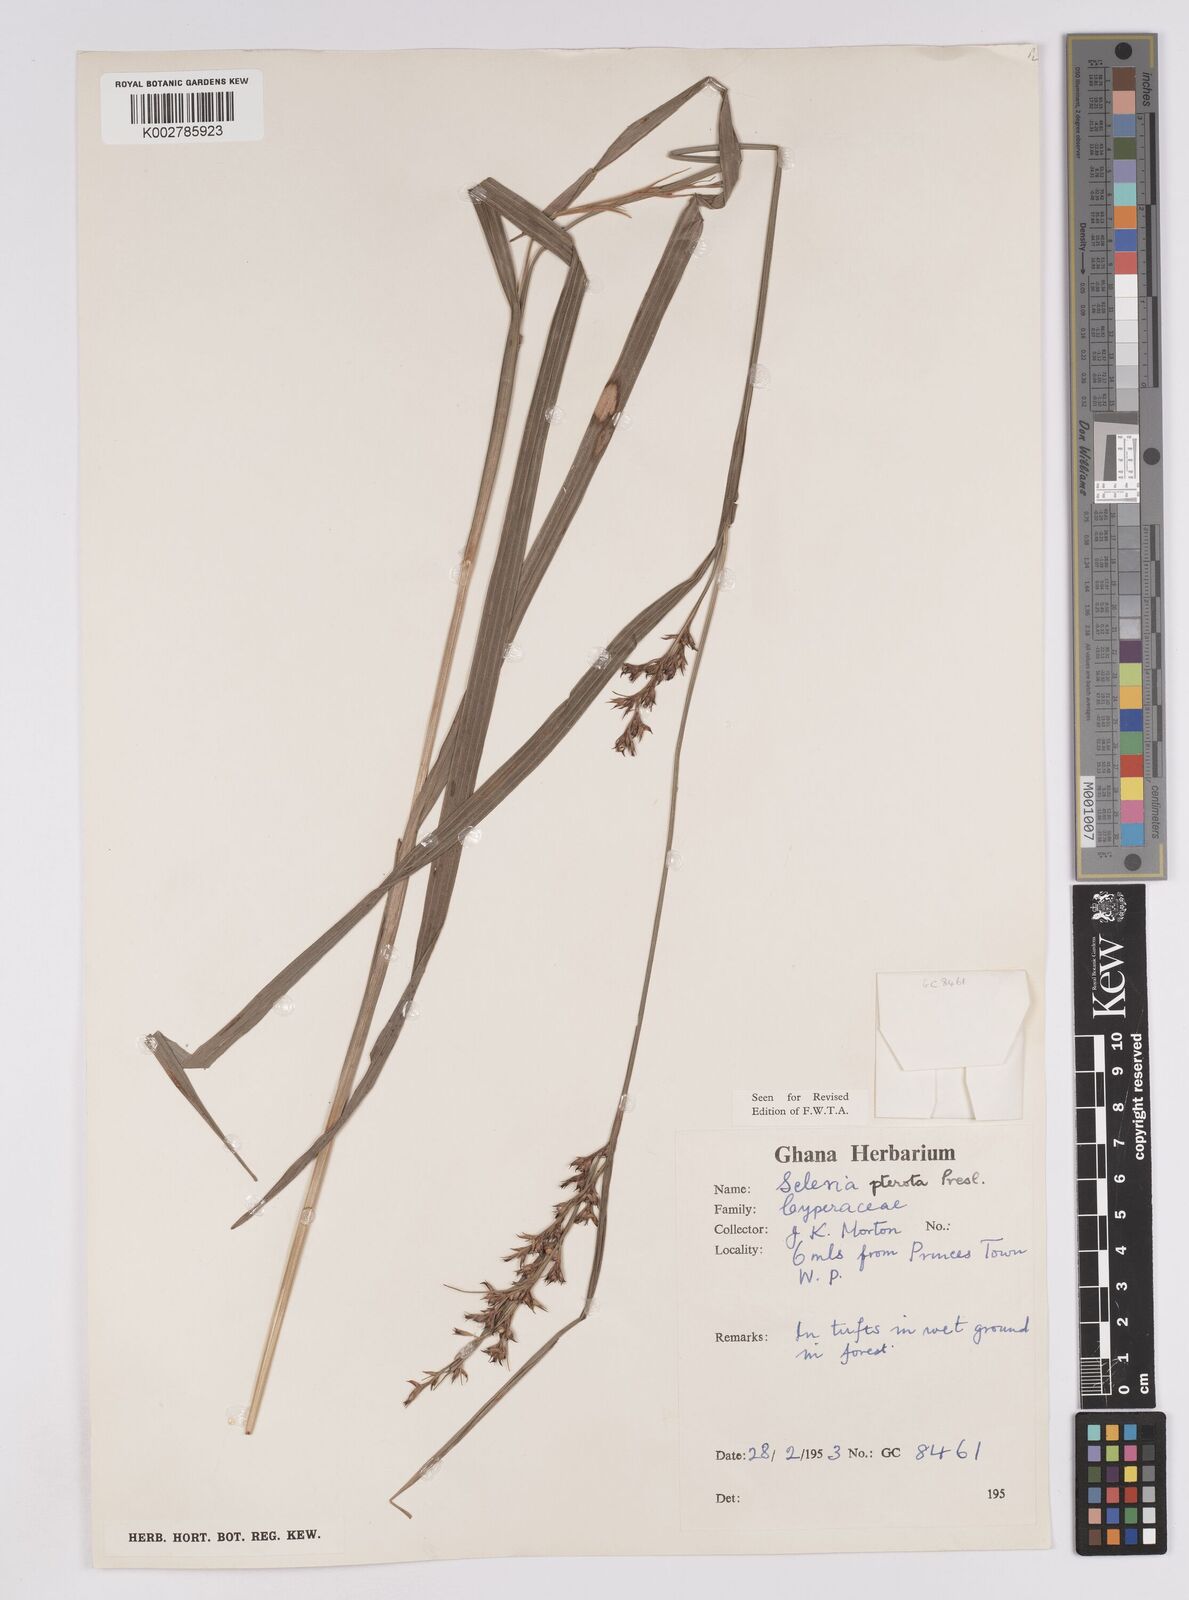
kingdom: Plantae
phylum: Tracheophyta
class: Liliopsida
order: Poales
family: Cyperaceae
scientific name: Cyperaceae
